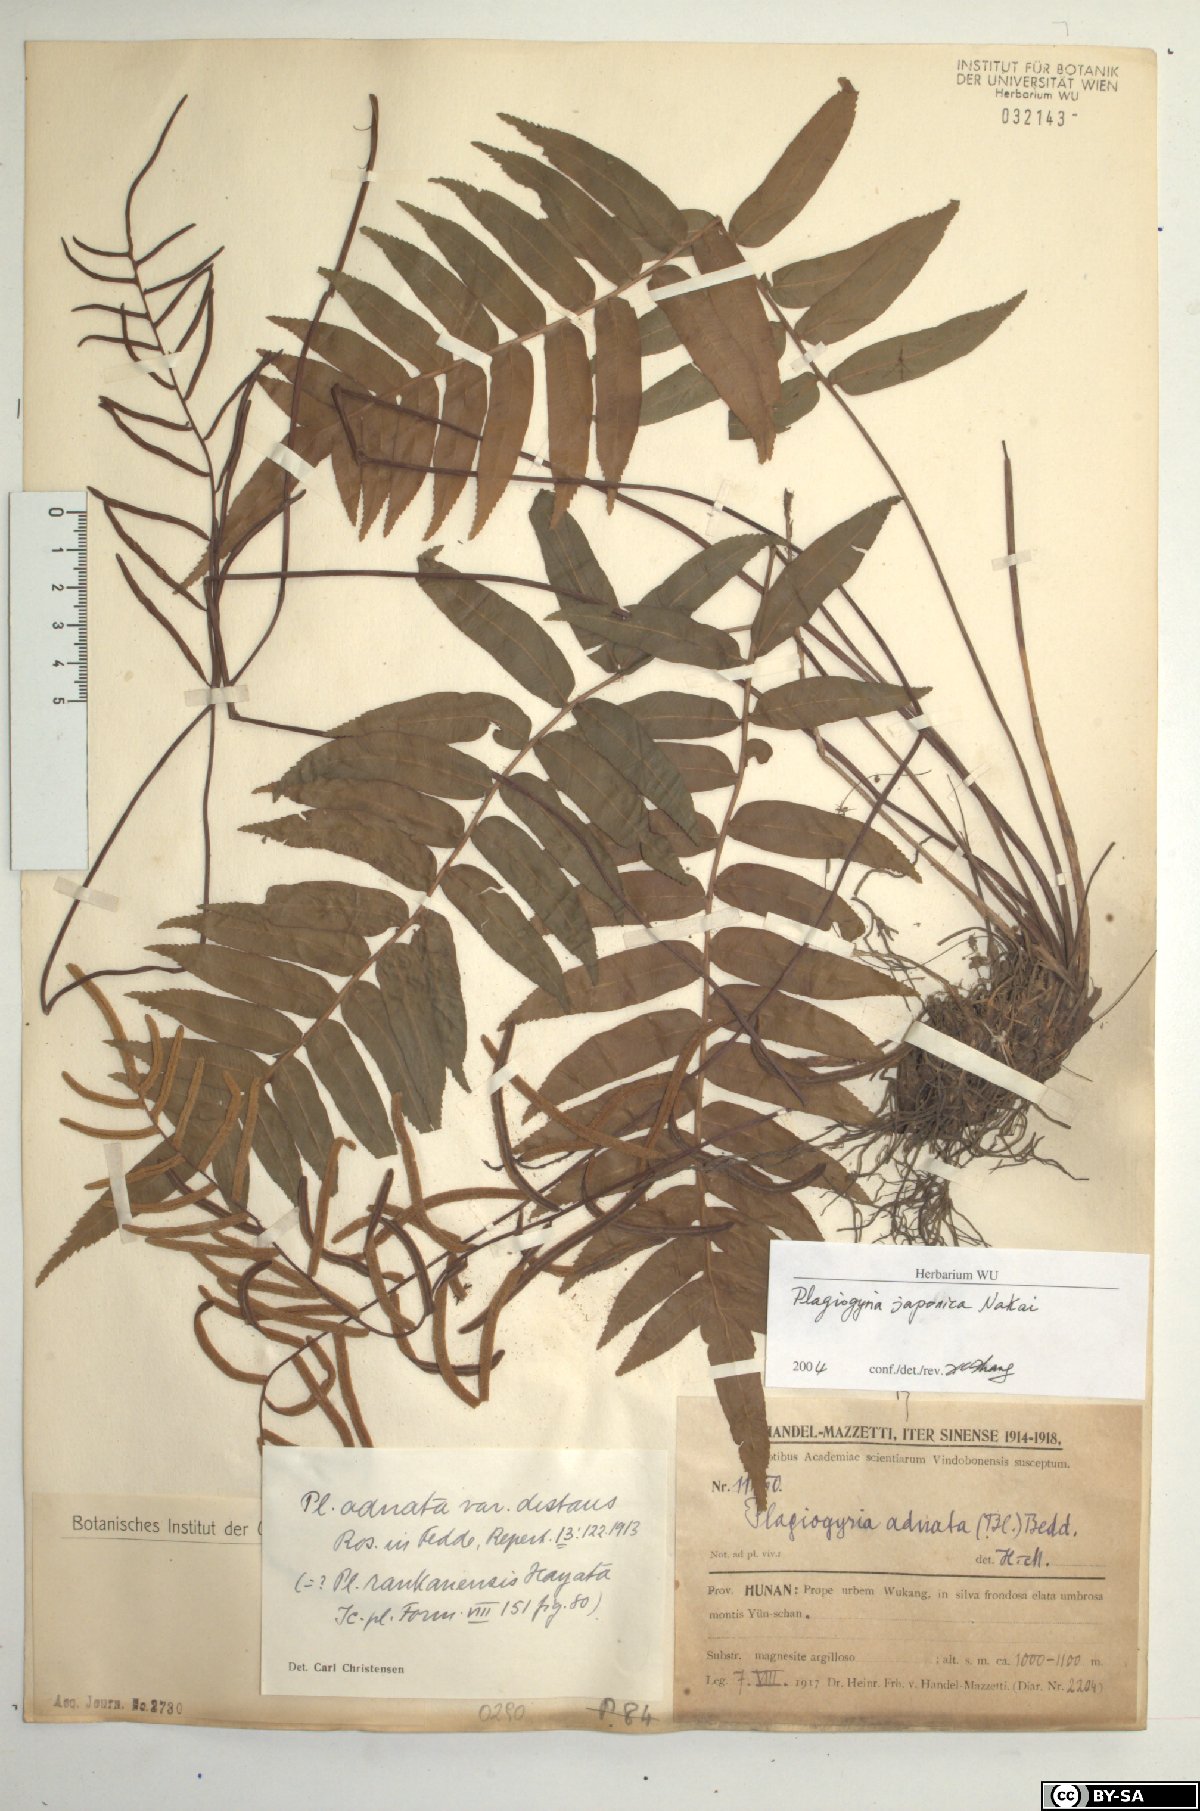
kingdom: Plantae
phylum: Tracheophyta
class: Polypodiopsida
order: Cyatheales
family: Plagiogyriaceae
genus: Plagiogyria
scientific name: Plagiogyria japonica
